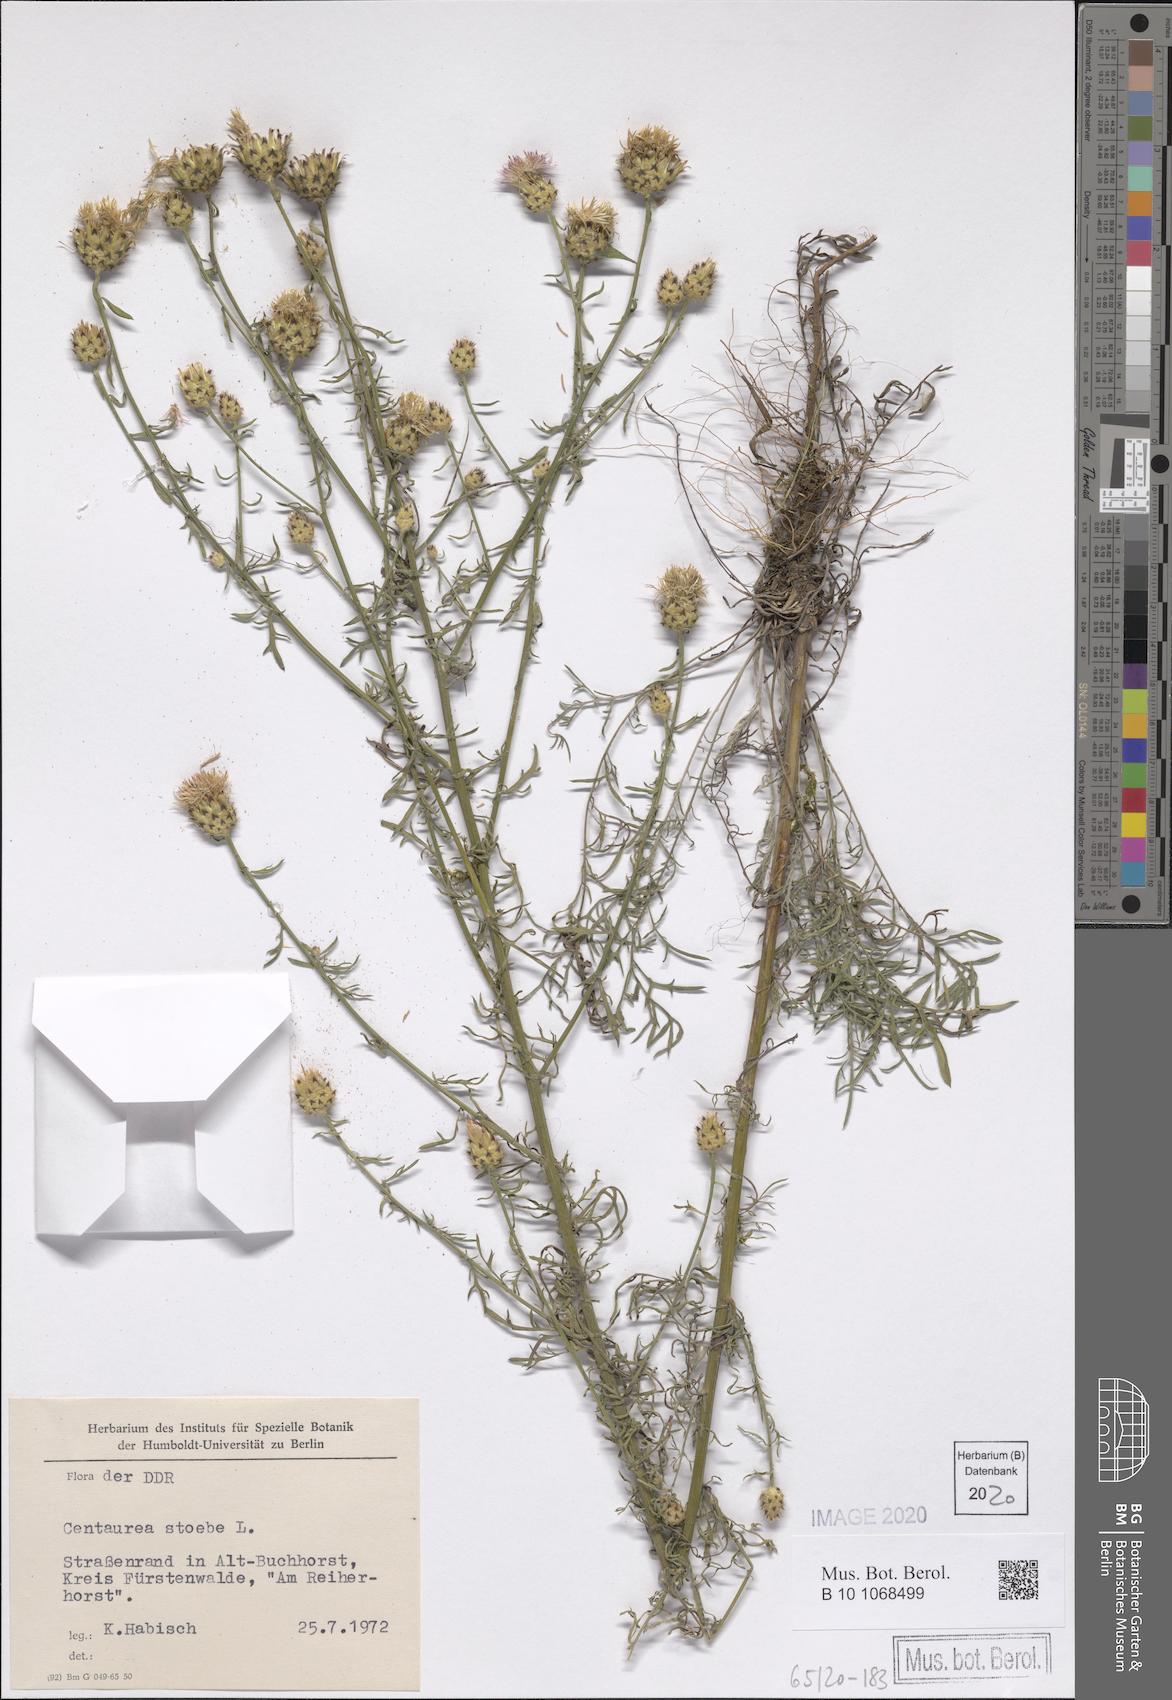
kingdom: Plantae
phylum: Tracheophyta
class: Magnoliopsida
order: Asterales
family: Asteraceae
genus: Centaurea
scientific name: Centaurea stoebe
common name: Spotted knapweed
